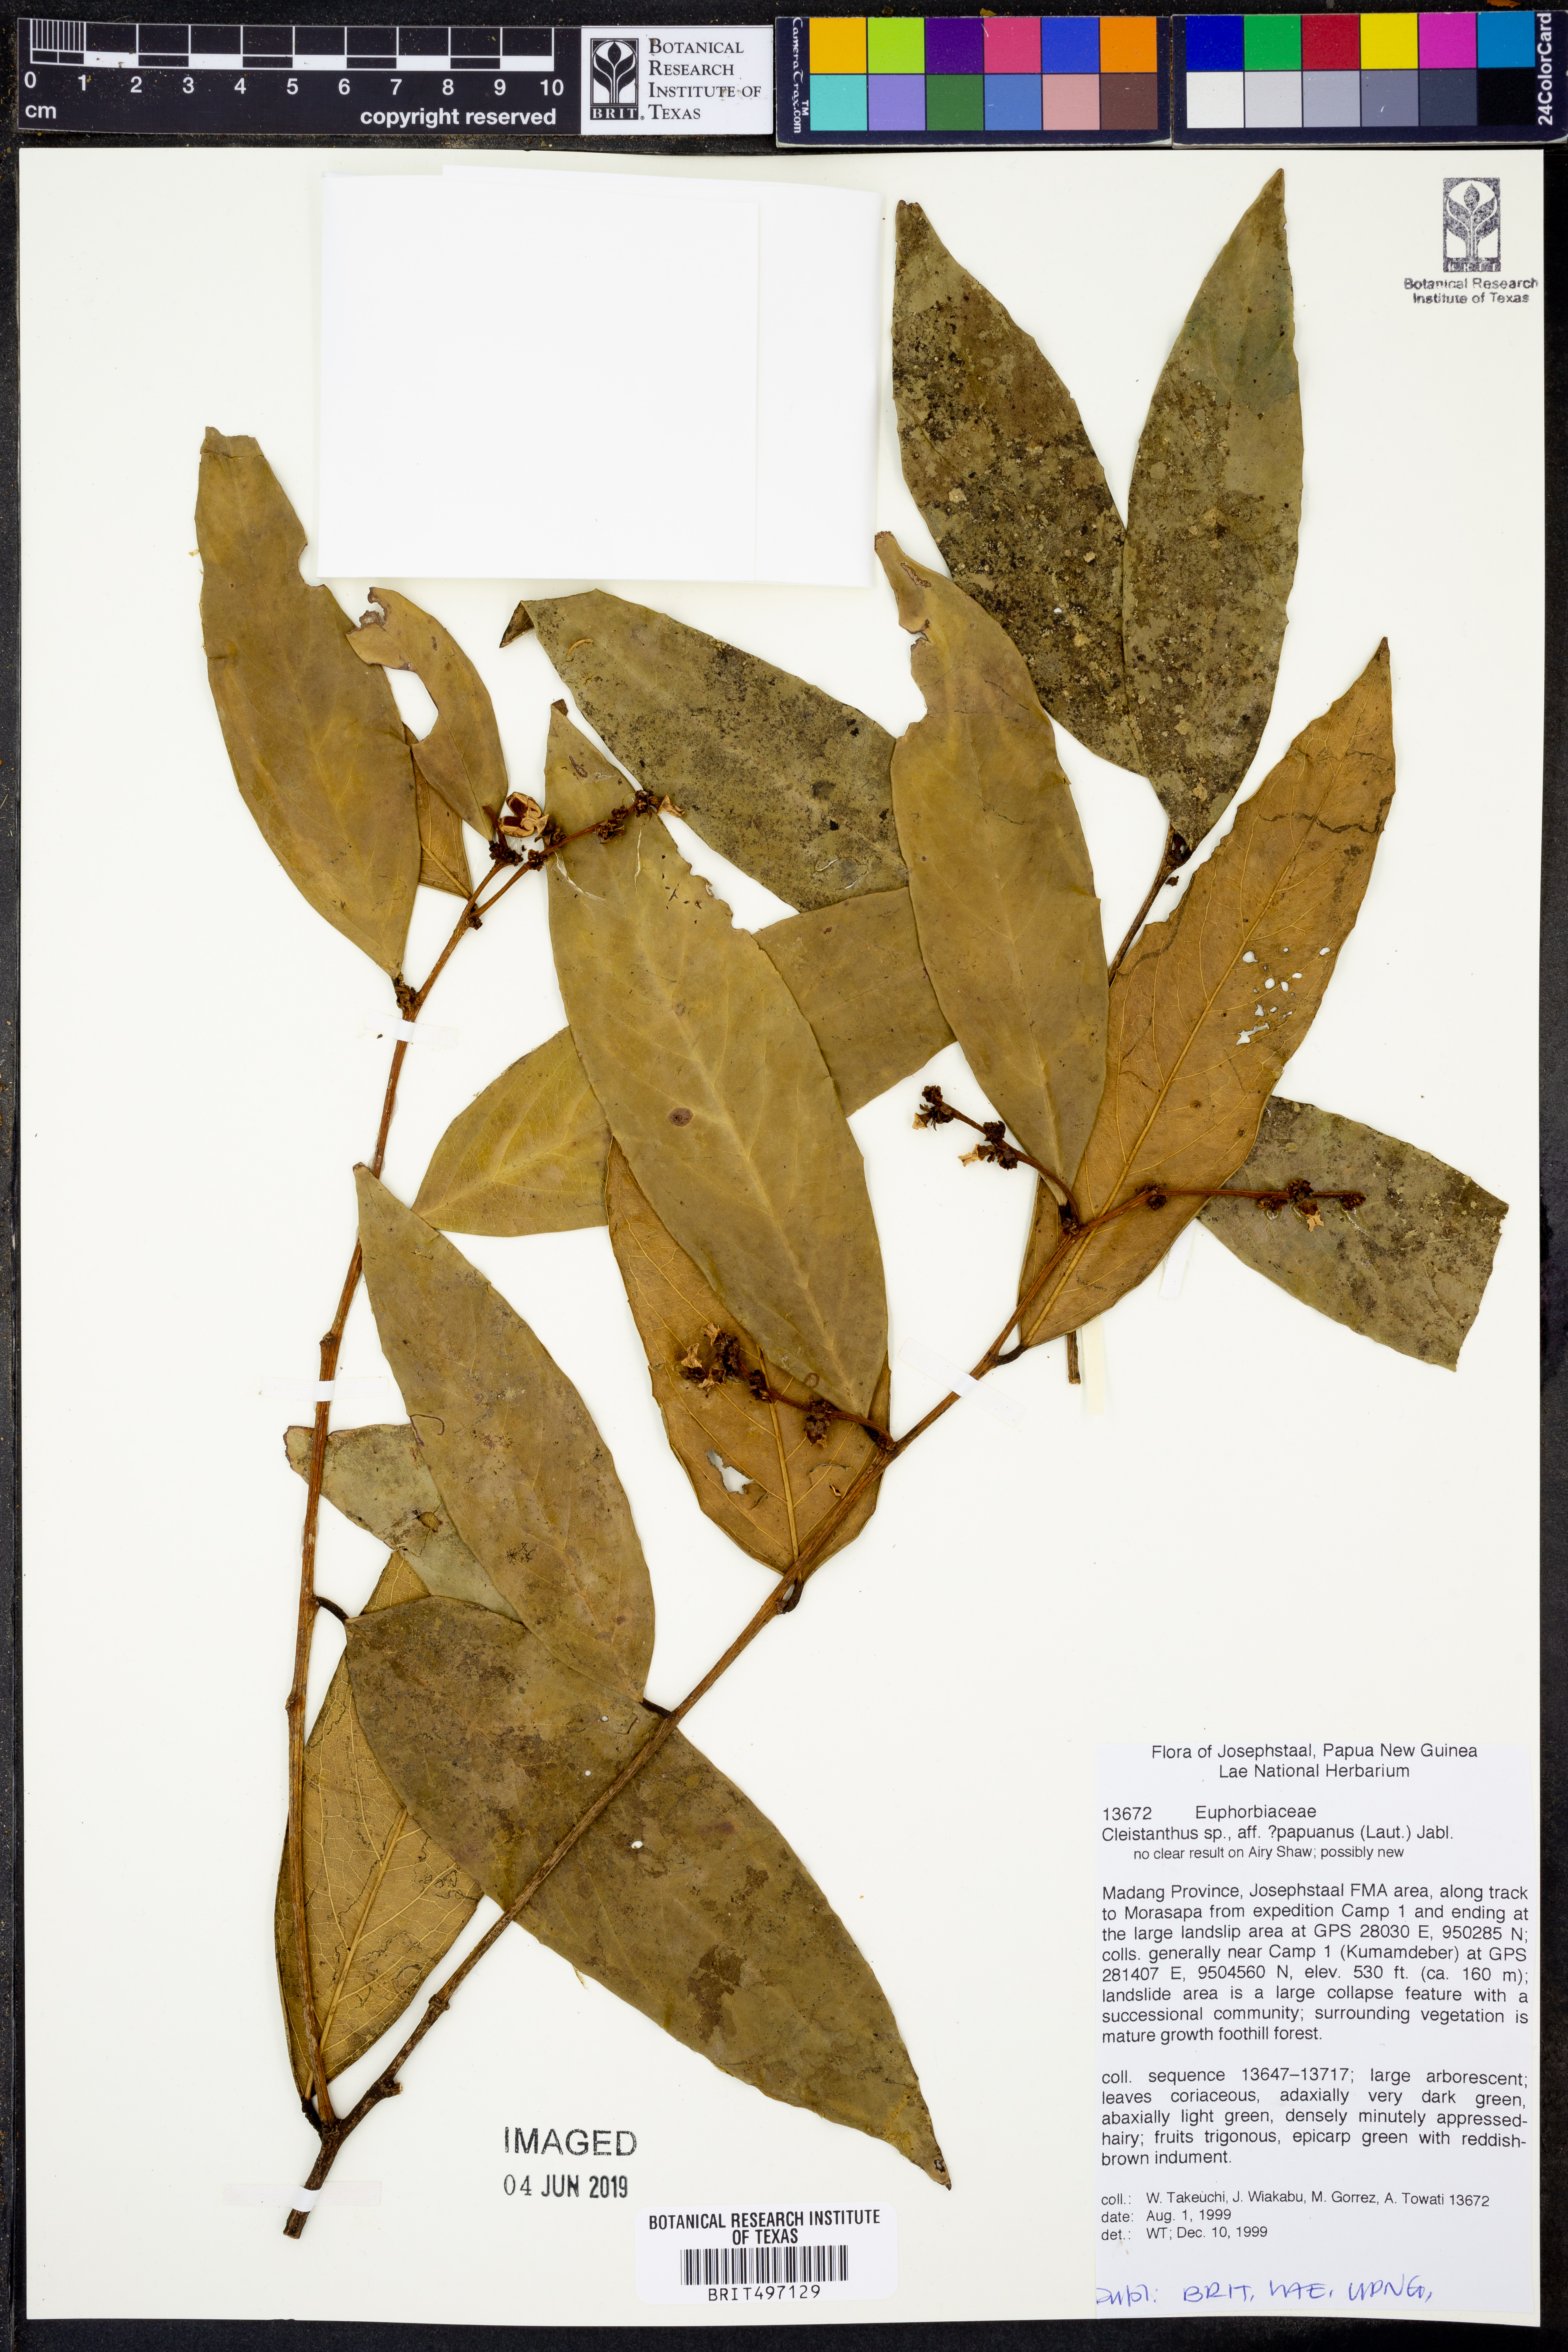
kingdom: Plantae
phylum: Tracheophyta
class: Magnoliopsida
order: Malpighiales
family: Phyllanthaceae
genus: Cleistanthus
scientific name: Cleistanthus papuanus
